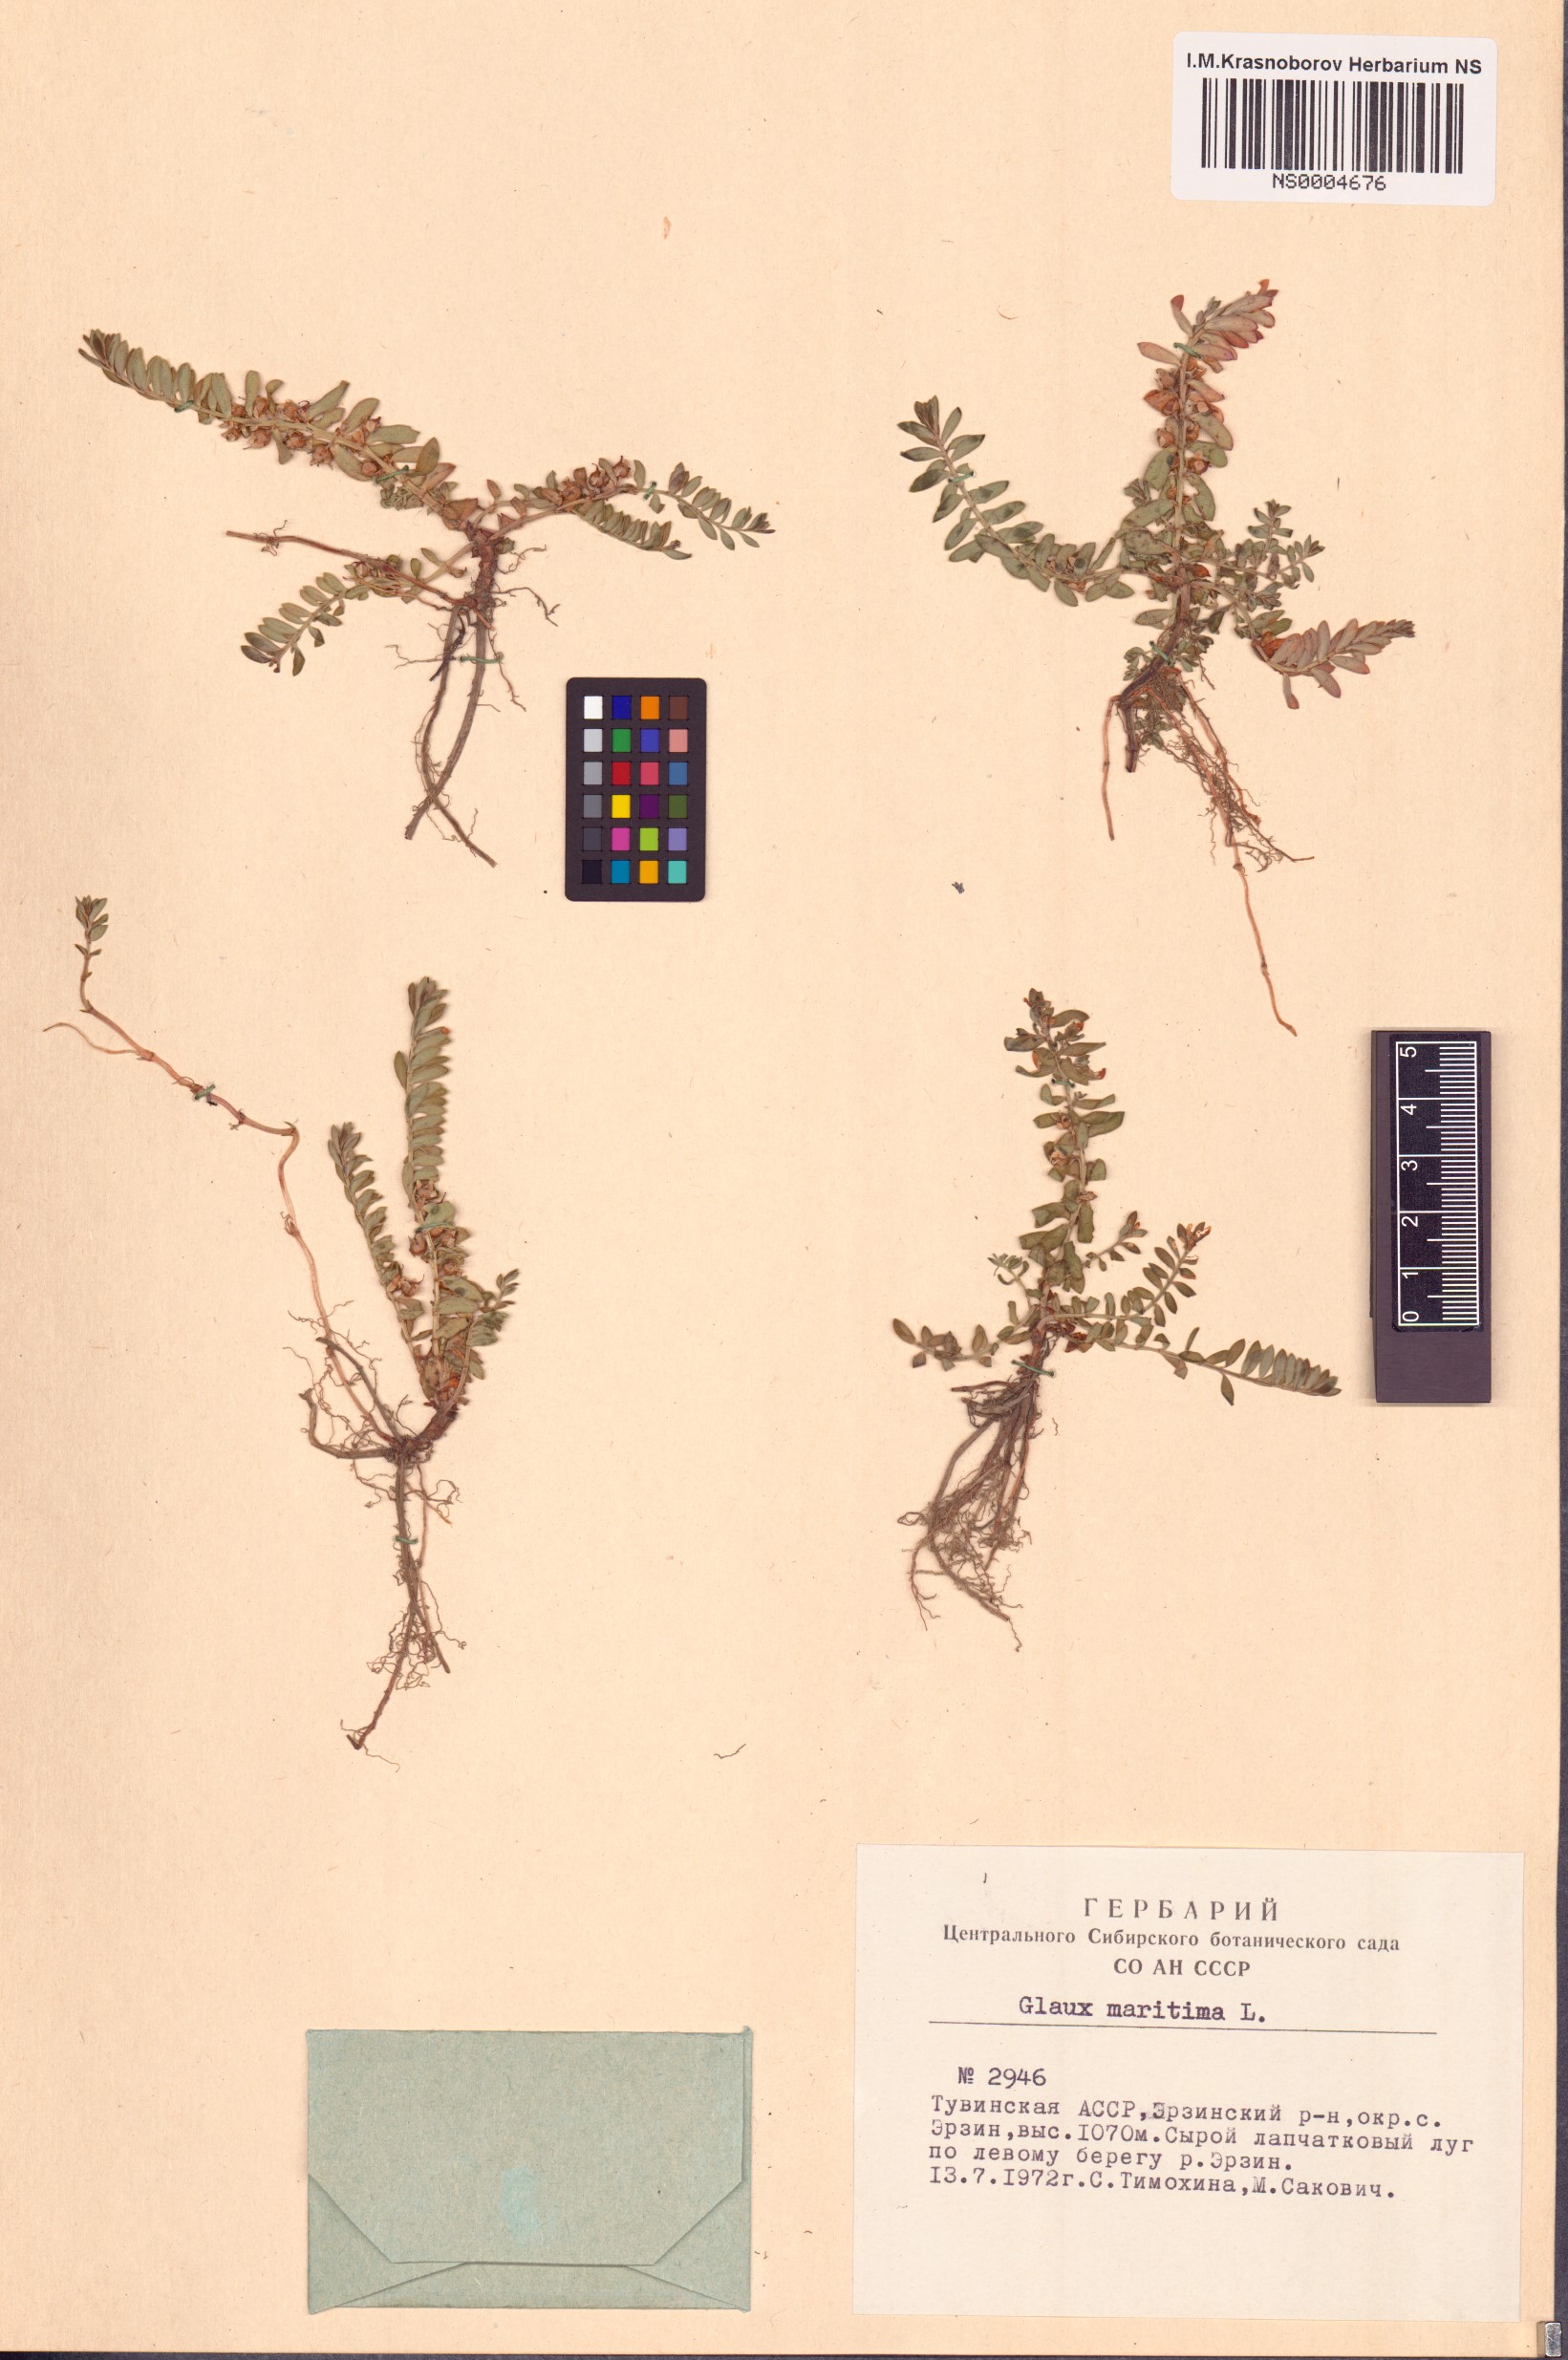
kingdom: Plantae
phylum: Tracheophyta
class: Magnoliopsida
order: Ericales
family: Primulaceae
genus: Lysimachia
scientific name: Lysimachia maritima
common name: Sea milkwort
